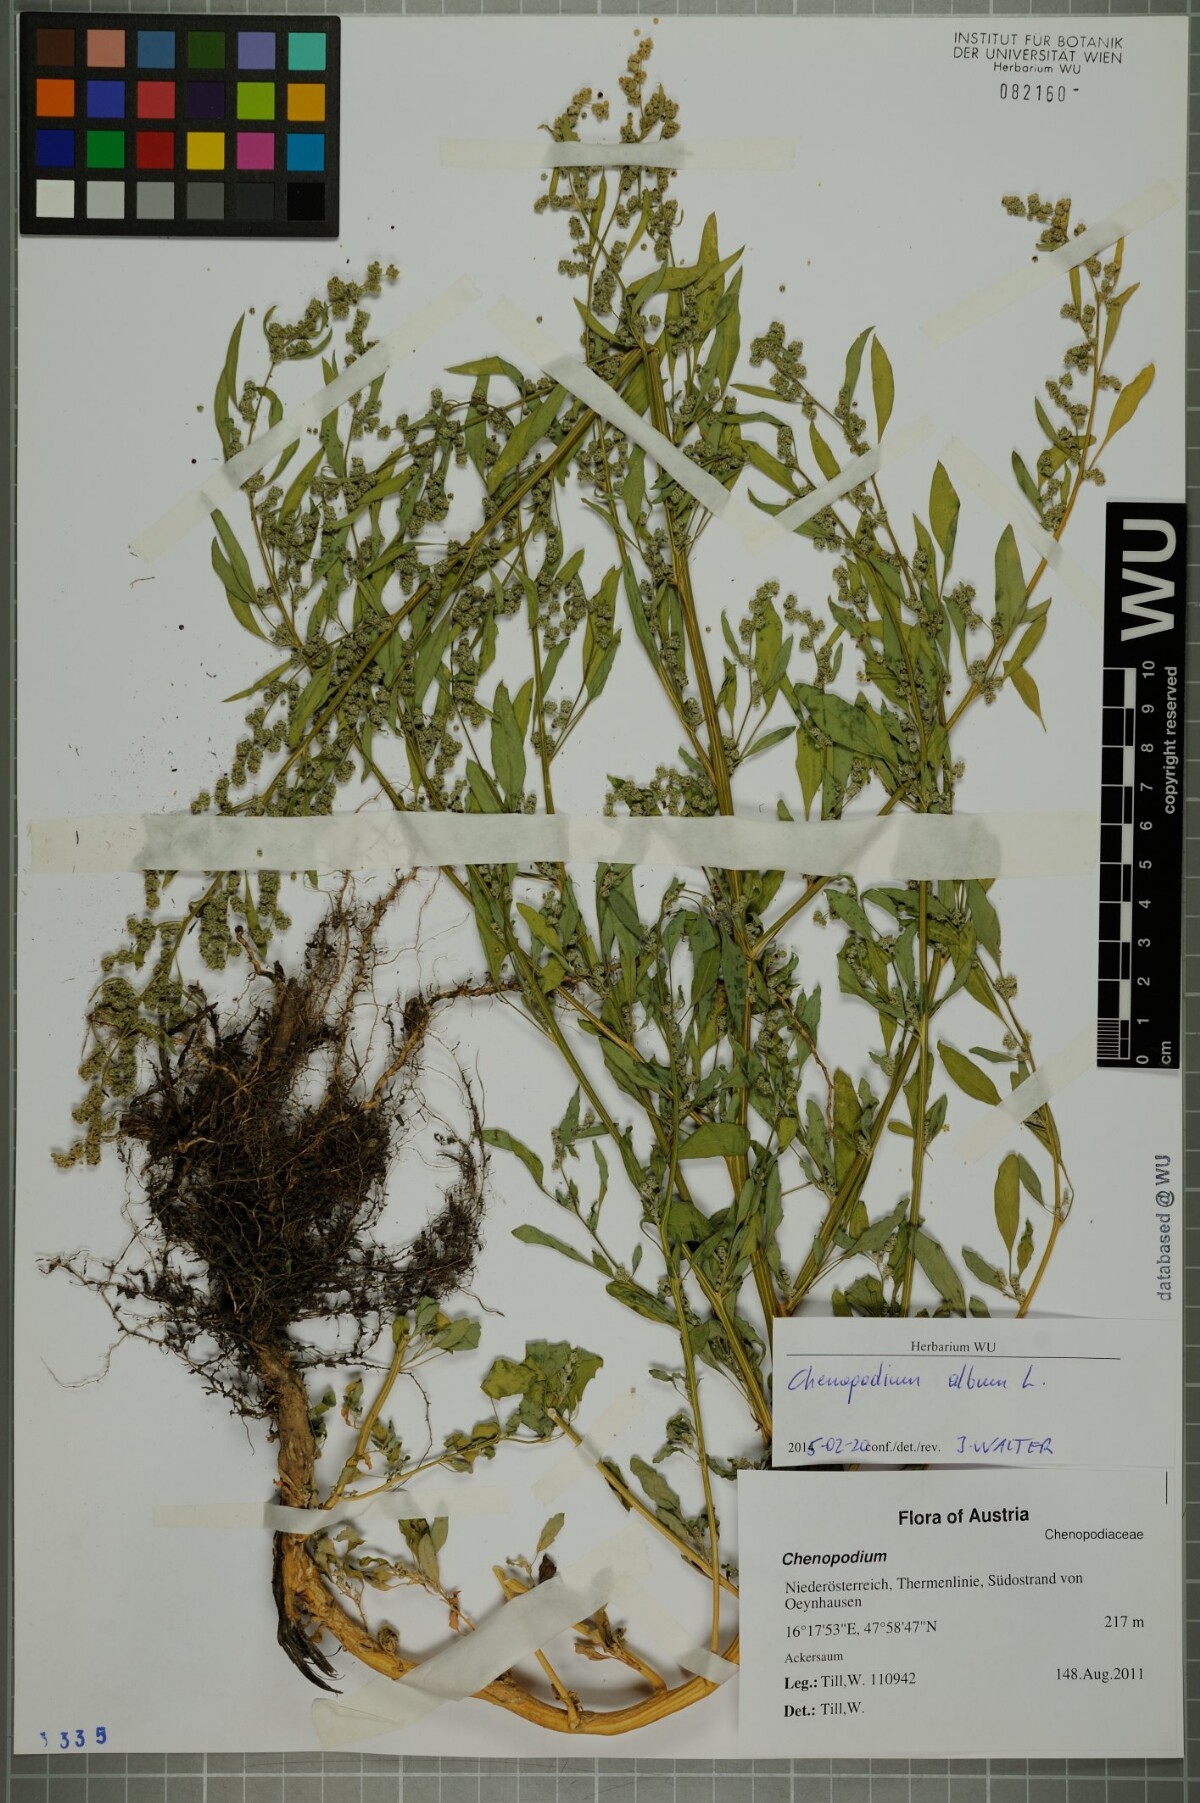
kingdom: Plantae
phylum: Tracheophyta
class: Magnoliopsida
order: Caryophyllales
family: Amaranthaceae
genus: Chenopodium
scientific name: Chenopodium album
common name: Fat-hen
